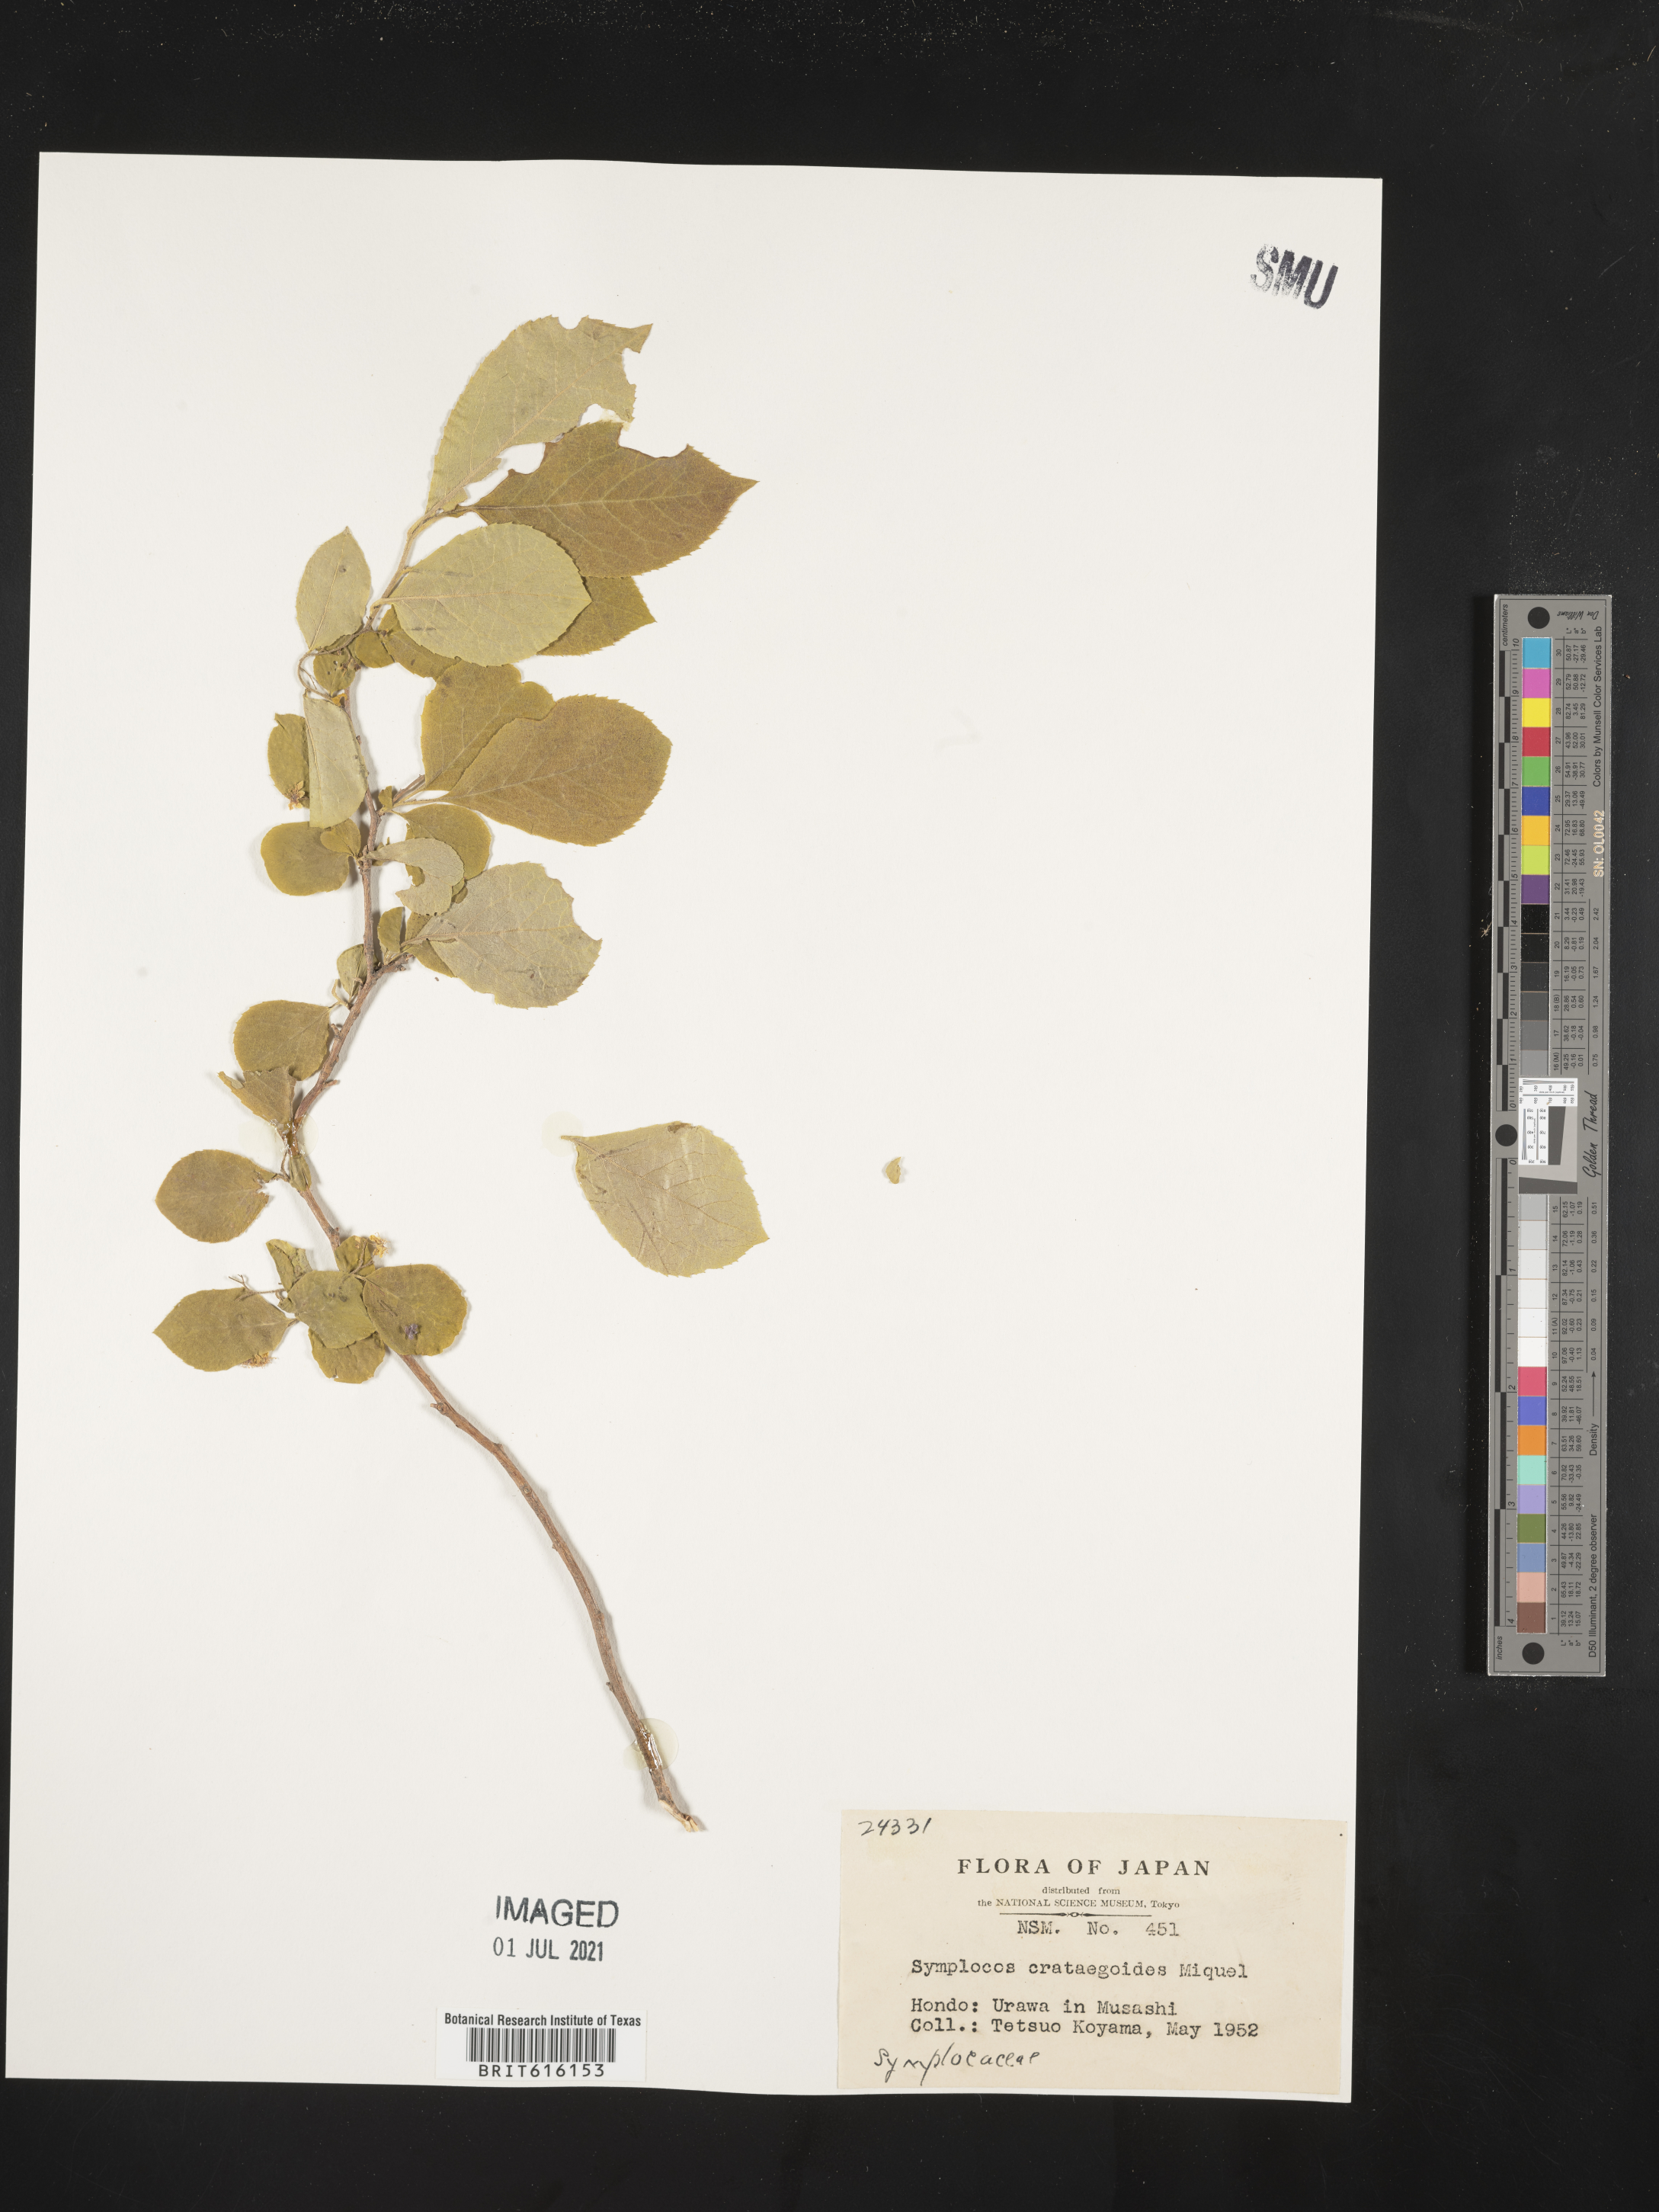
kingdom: Plantae
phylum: Tracheophyta
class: Magnoliopsida
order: Ericales
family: Symplocaceae
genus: Symplocos
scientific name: Symplocos paniculata
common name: Sapphire-berry
